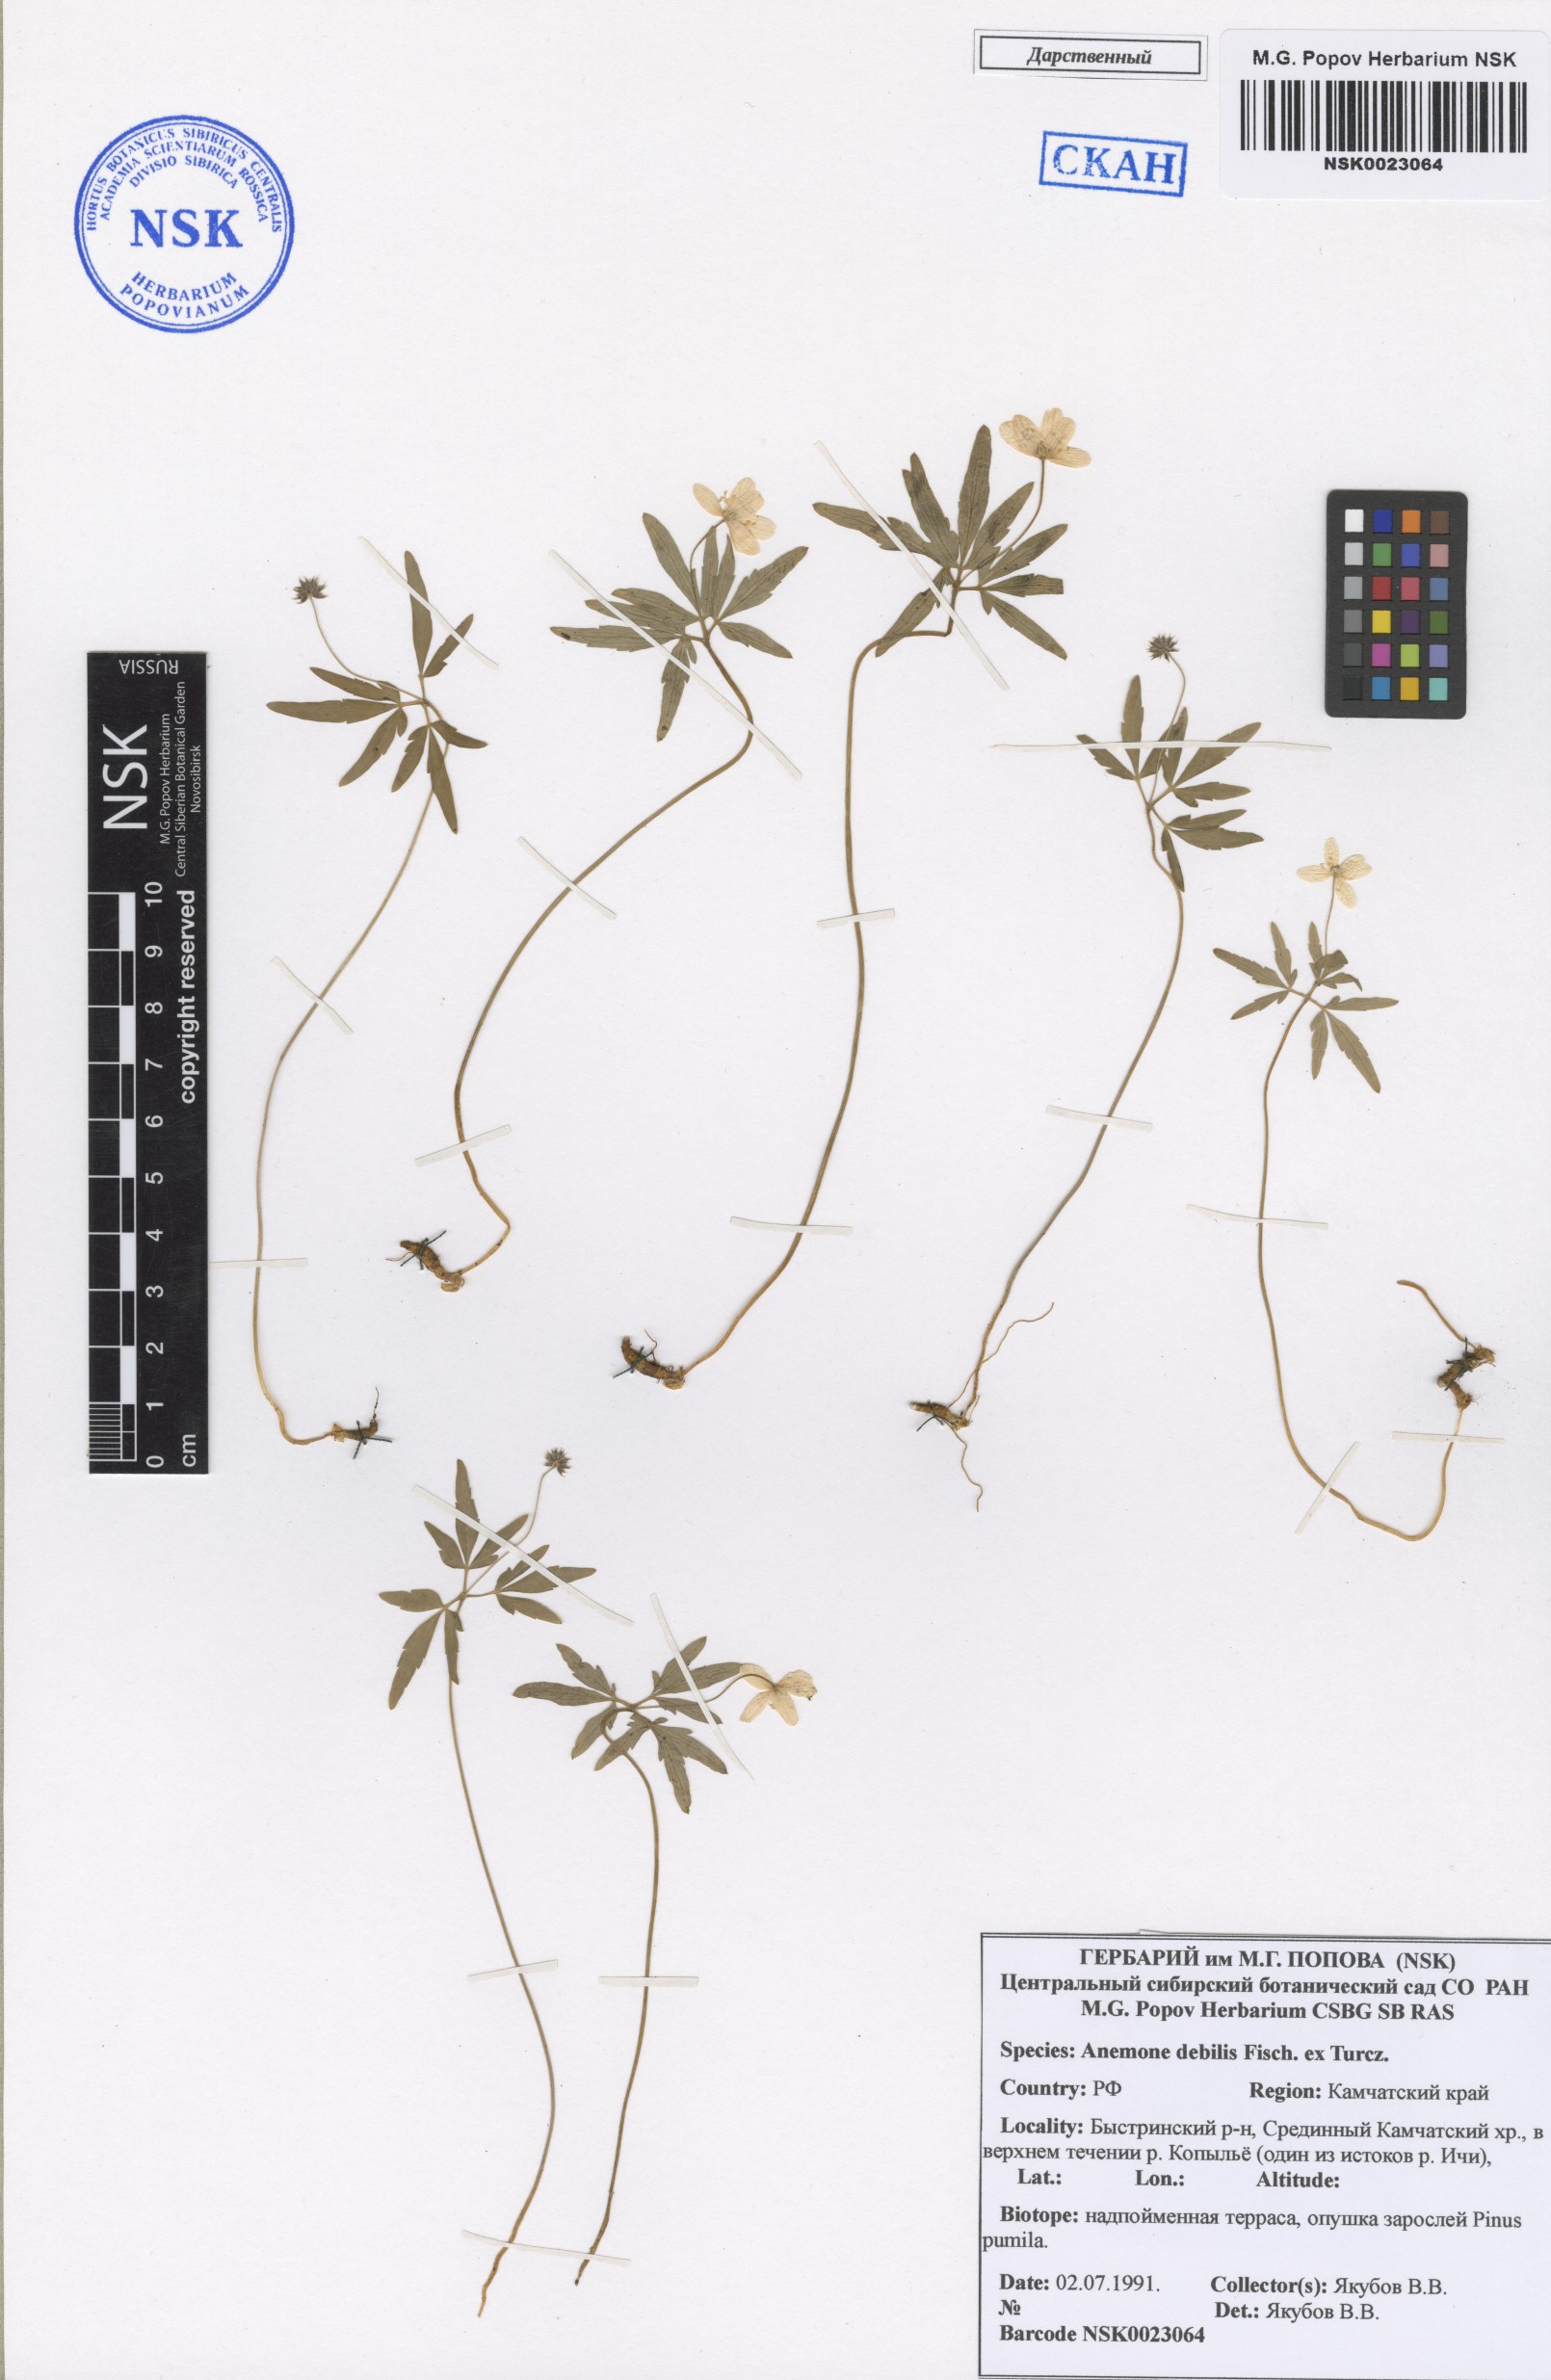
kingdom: Plantae
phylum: Tracheophyta
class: Magnoliopsida
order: Ranunculales
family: Ranunculaceae
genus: Anemone
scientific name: Anemone debilis
